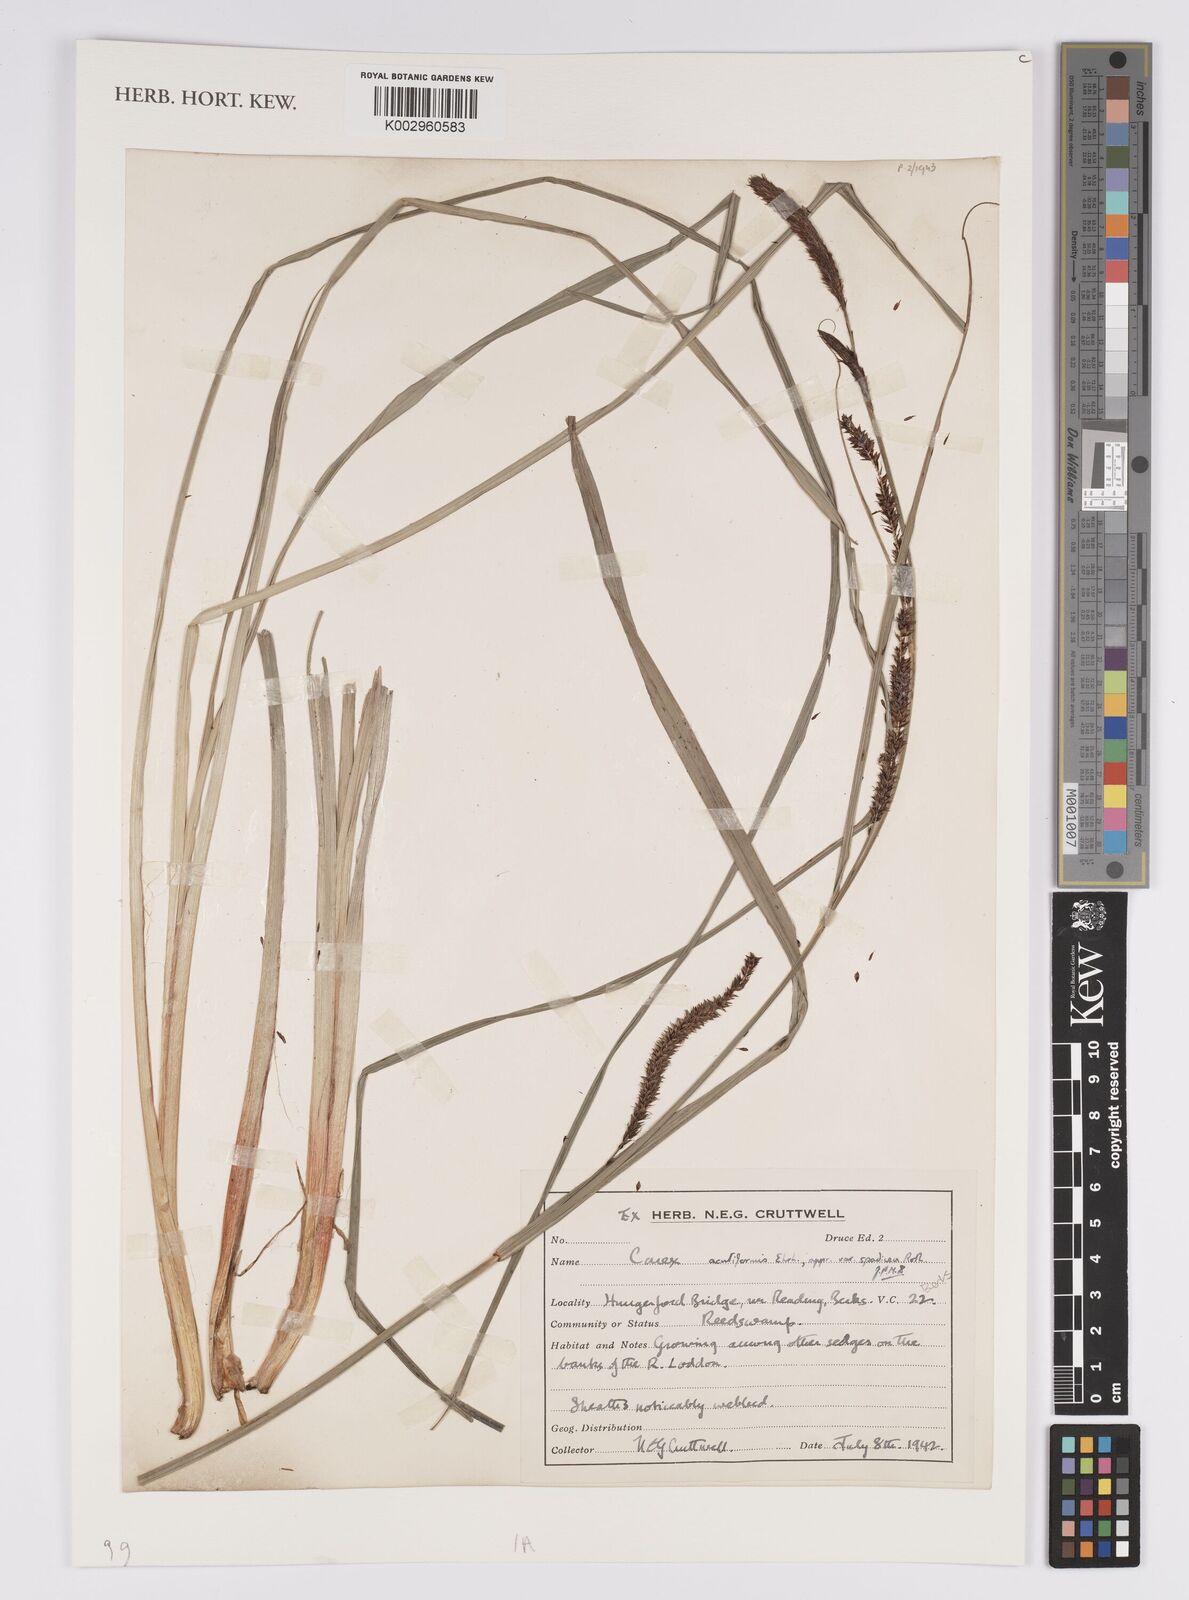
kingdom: Plantae
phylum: Tracheophyta
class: Liliopsida
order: Poales
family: Cyperaceae
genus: Carex
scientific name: Carex acutiformis
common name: Lesser pond-sedge
